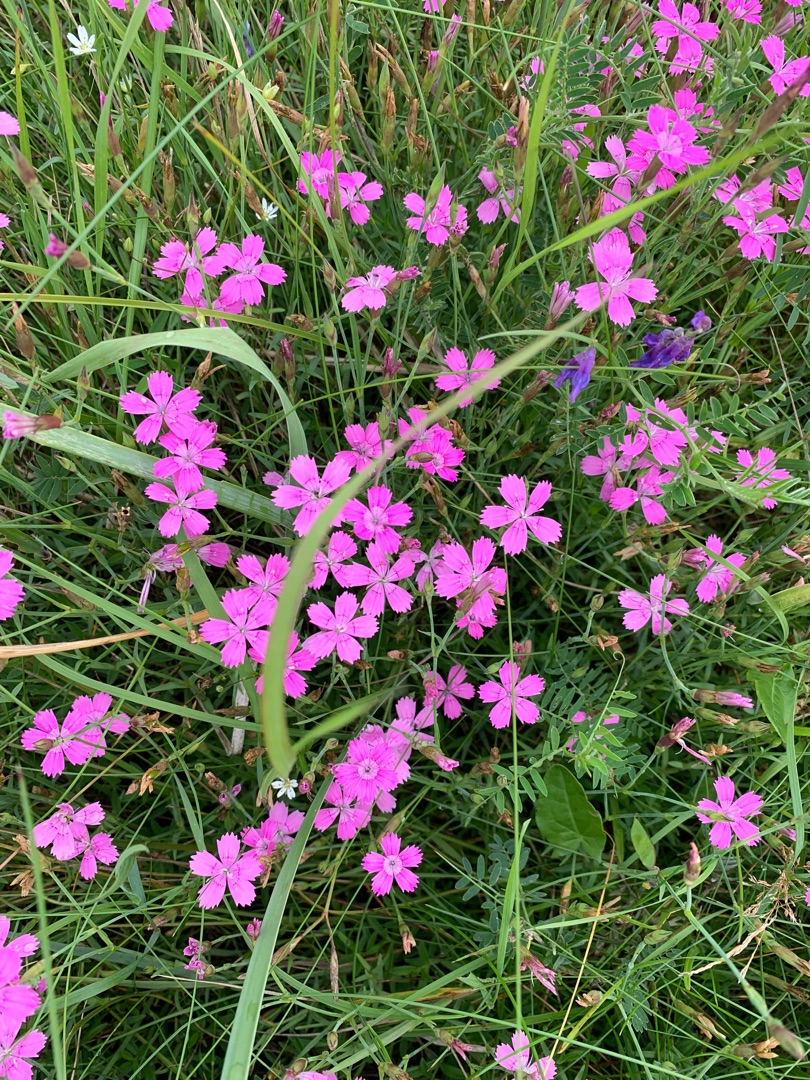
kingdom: Plantae
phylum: Tracheophyta
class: Magnoliopsida
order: Caryophyllales
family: Caryophyllaceae
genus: Dianthus
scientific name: Dianthus deltoides
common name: Bakke-nellike
